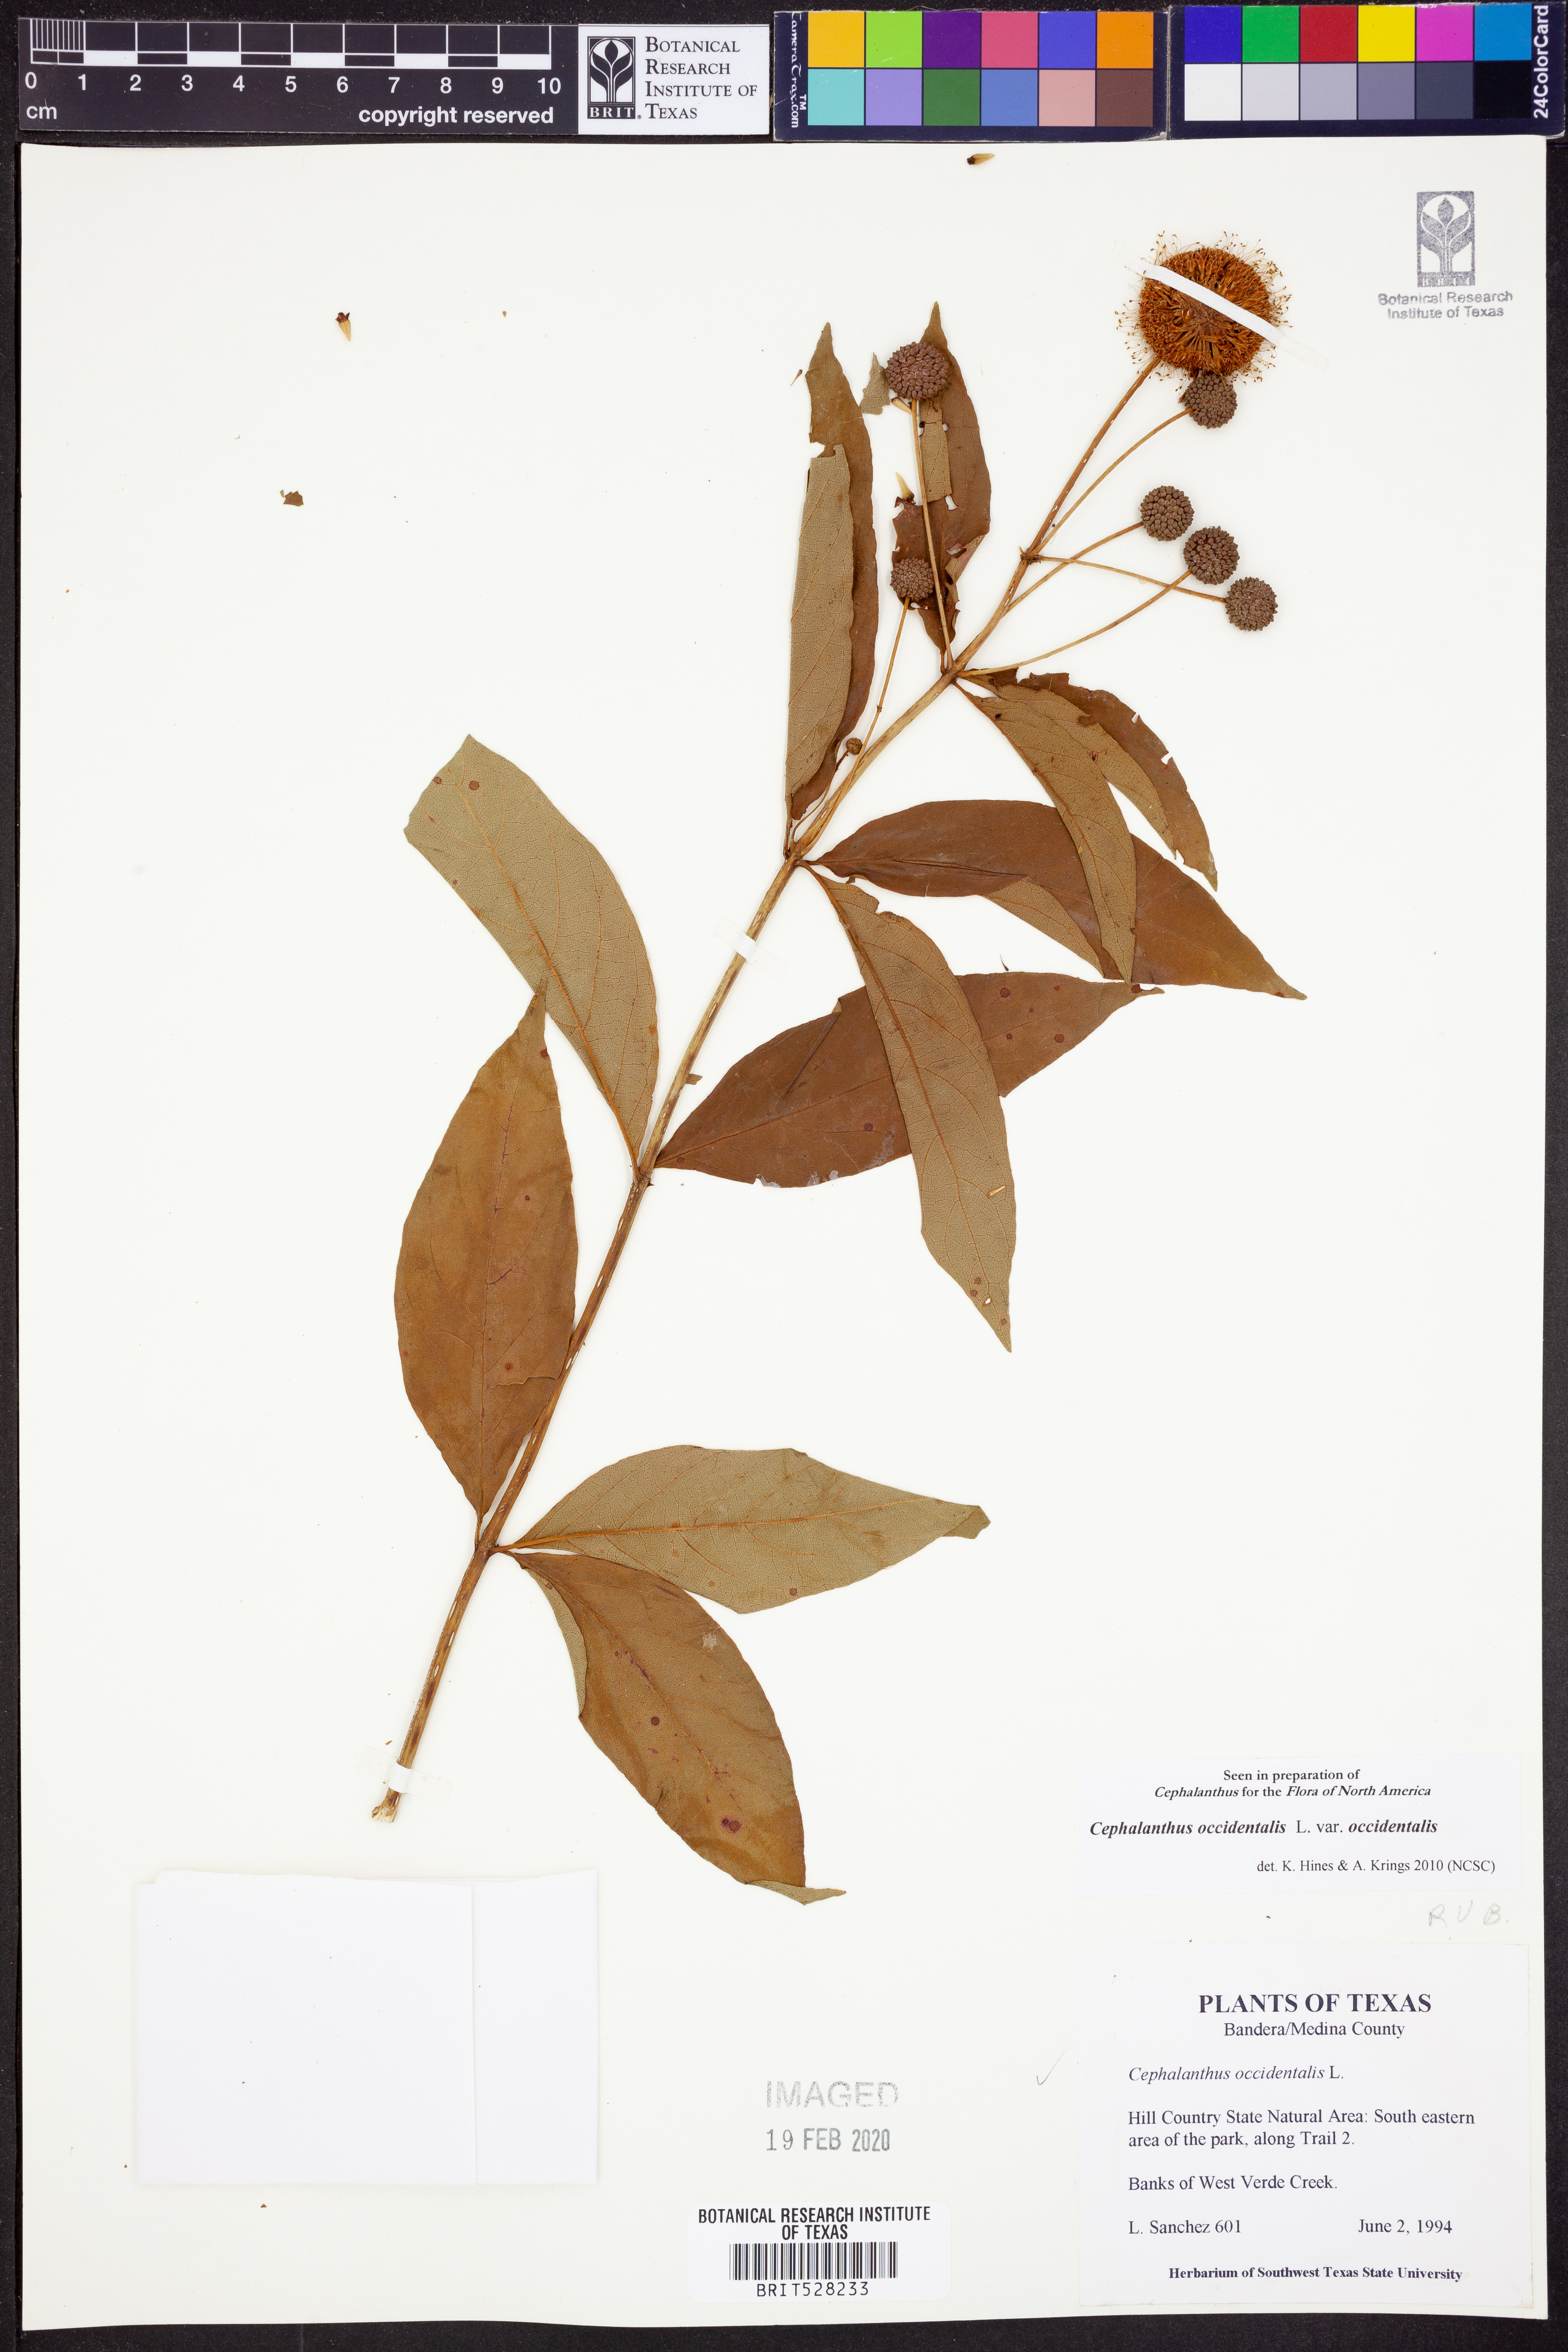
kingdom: Plantae
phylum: Tracheophyta
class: Magnoliopsida
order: Gentianales
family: Rubiaceae
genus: Cephalanthus
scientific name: Cephalanthus occidentalis
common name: Button-willow
